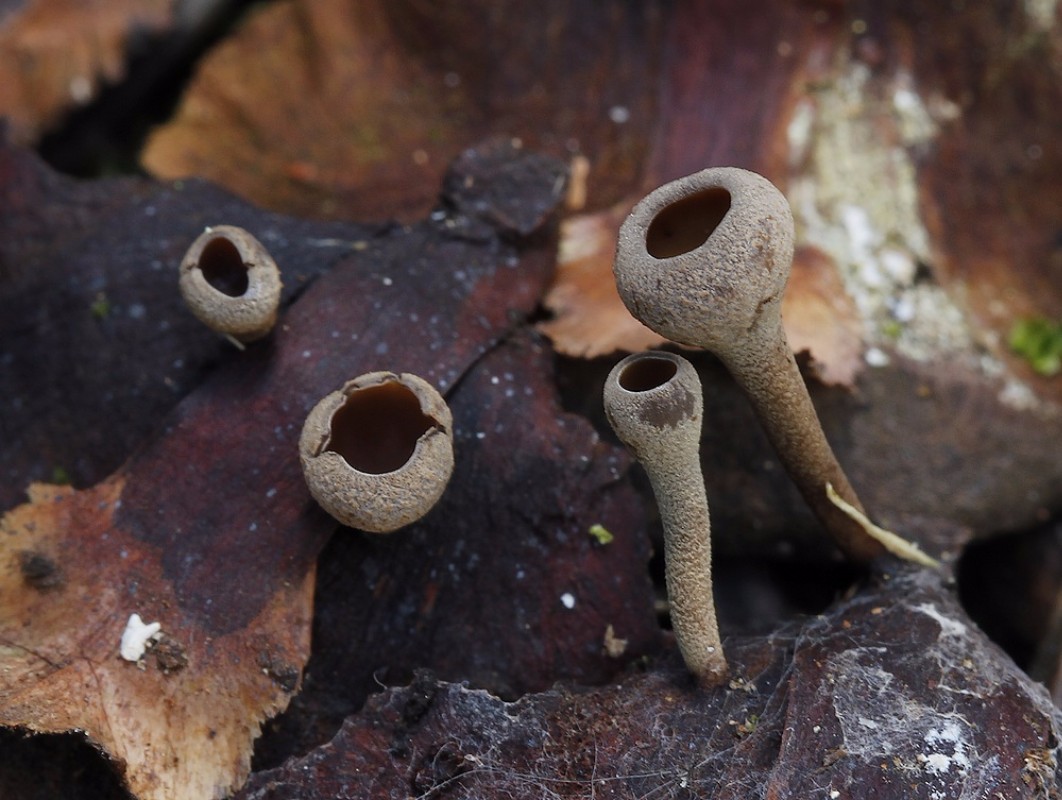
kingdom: Fungi
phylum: Ascomycota
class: Leotiomycetes
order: Helotiales
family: Sclerotiniaceae
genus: Ciboria
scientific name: Ciboria rufofusca
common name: kogleskæl-knoldskive
